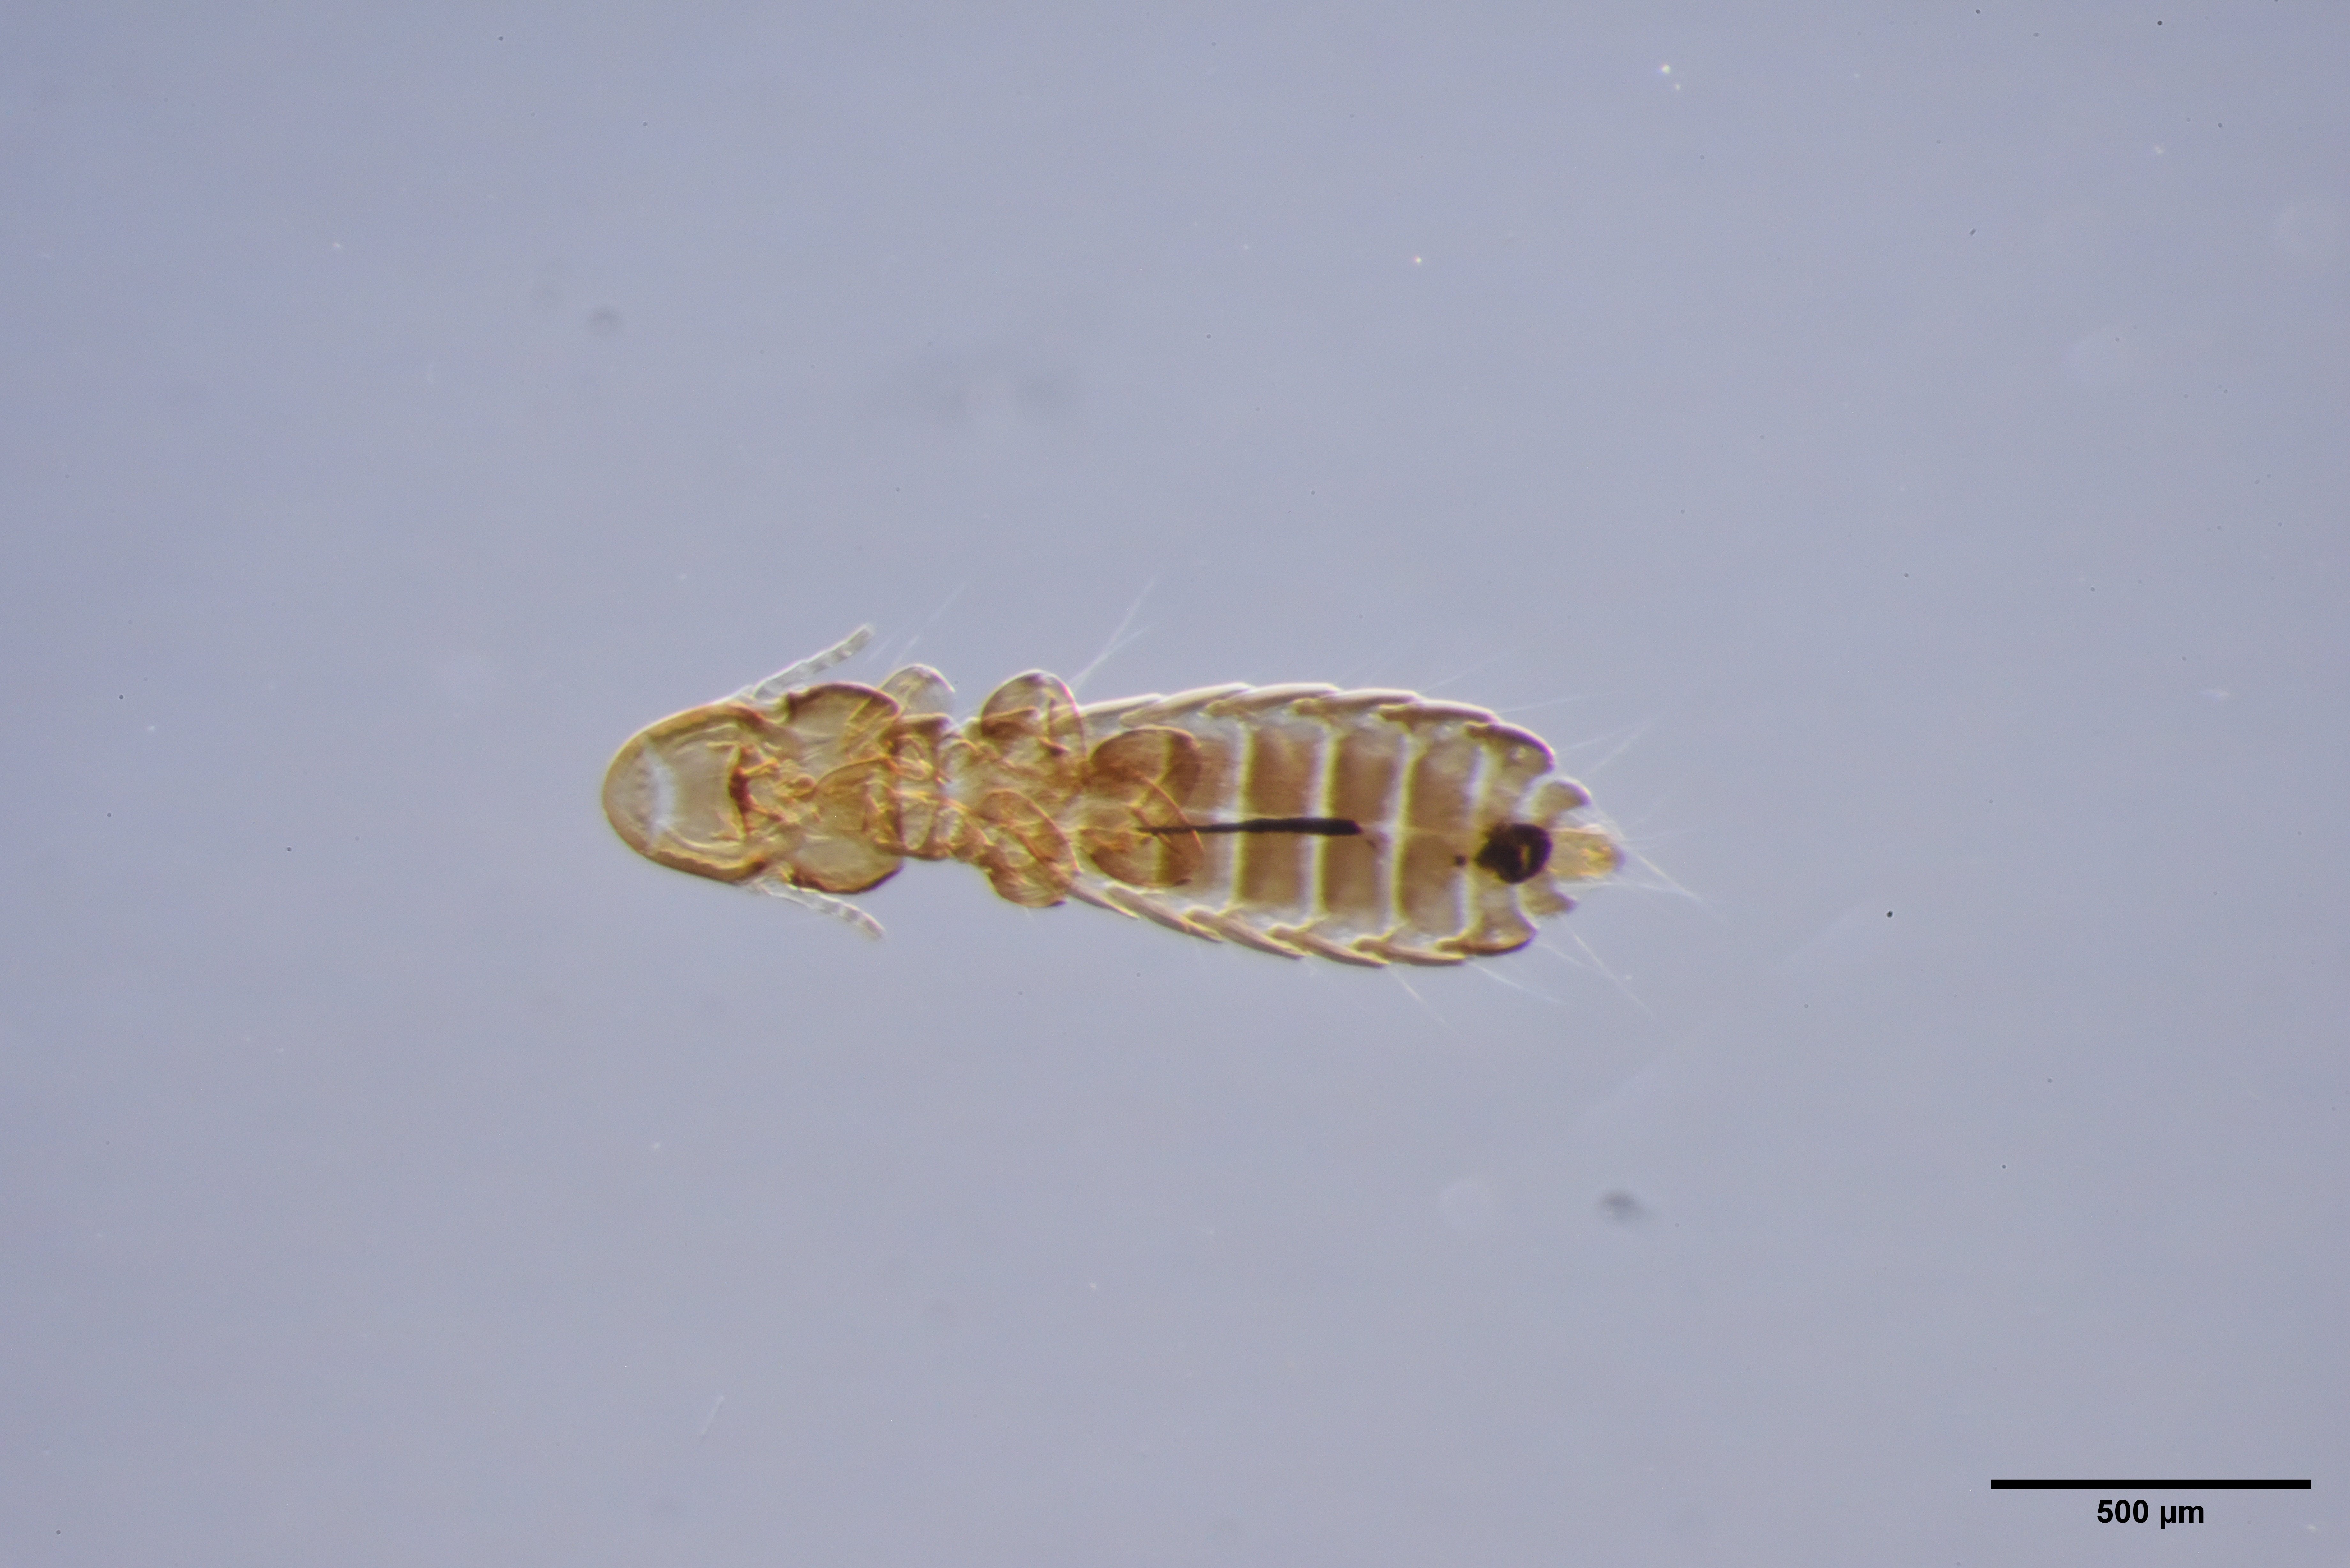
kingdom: Animalia
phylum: Arthropoda
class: Insecta
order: Psocodea
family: Philopteridae
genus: Cuculicola
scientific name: Cuculicola latirostris
